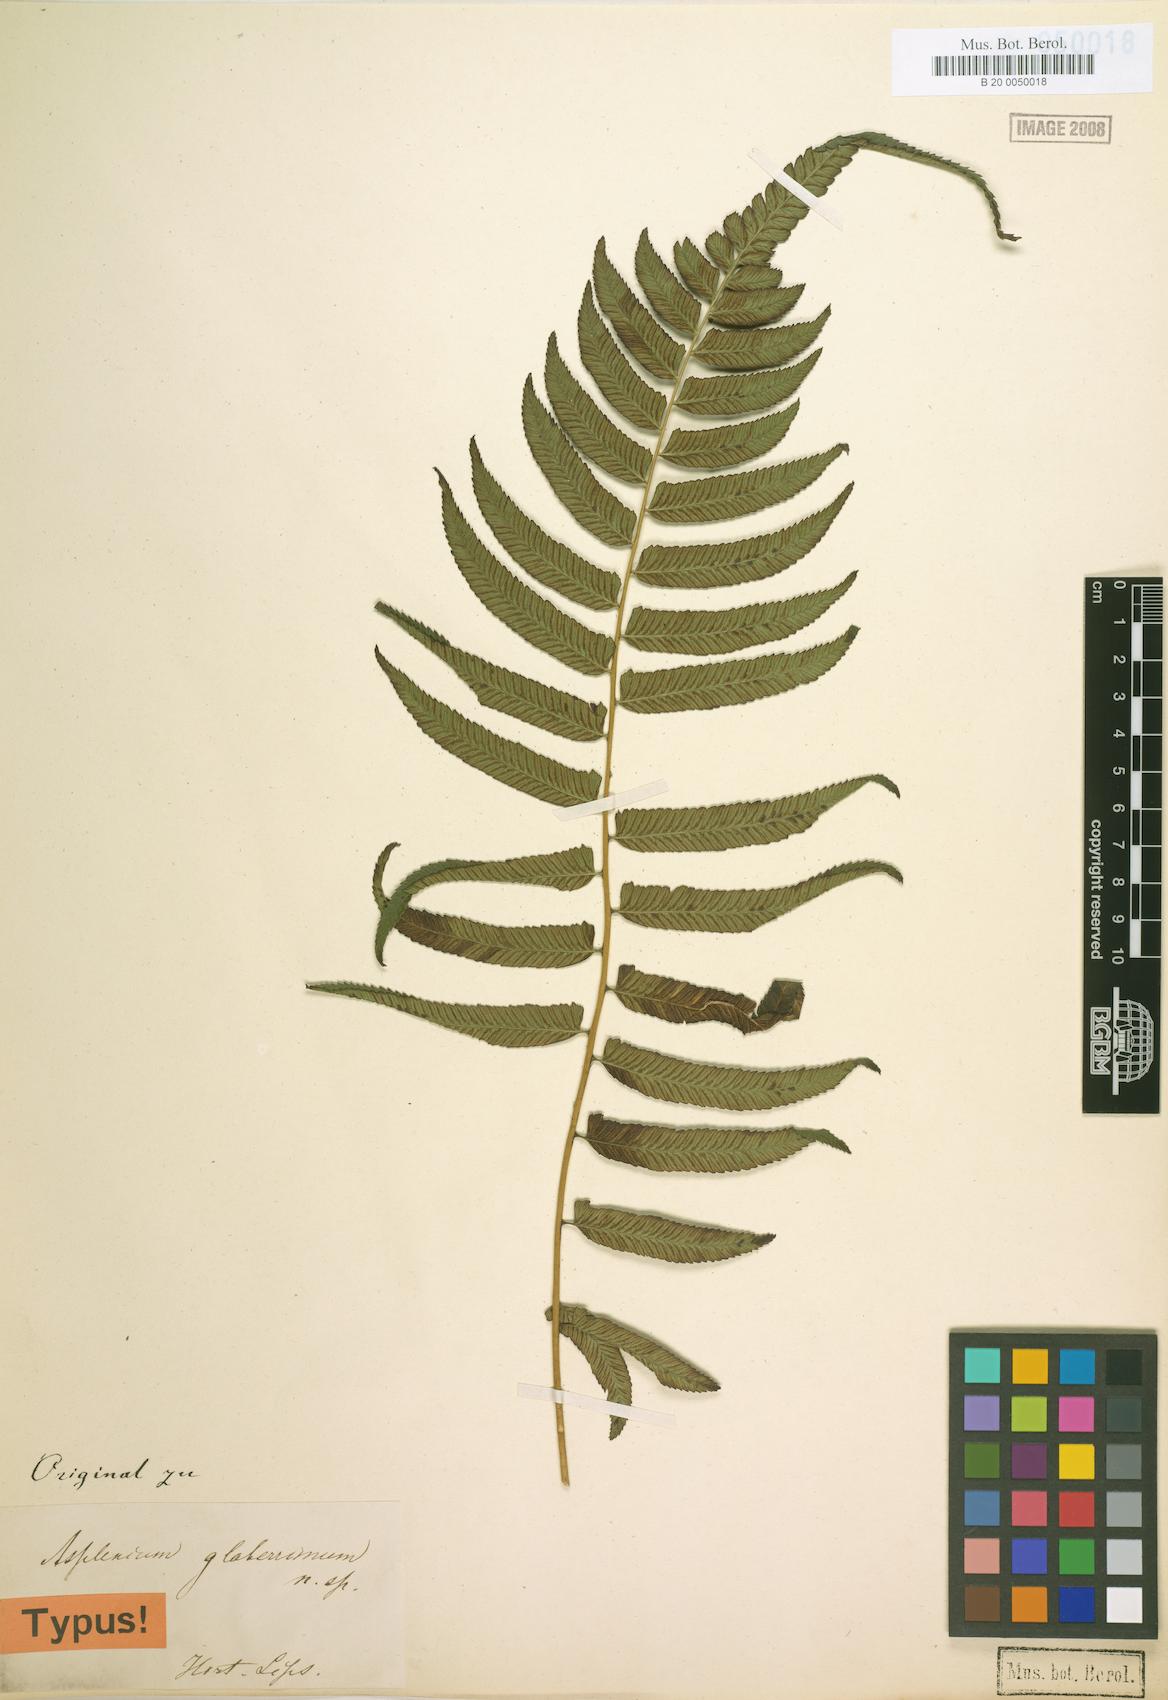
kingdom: Plantae
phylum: Tracheophyta
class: Polypodiopsida
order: Polypodiales
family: Athyriaceae
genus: Diplazium
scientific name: Diplazium pallidum
